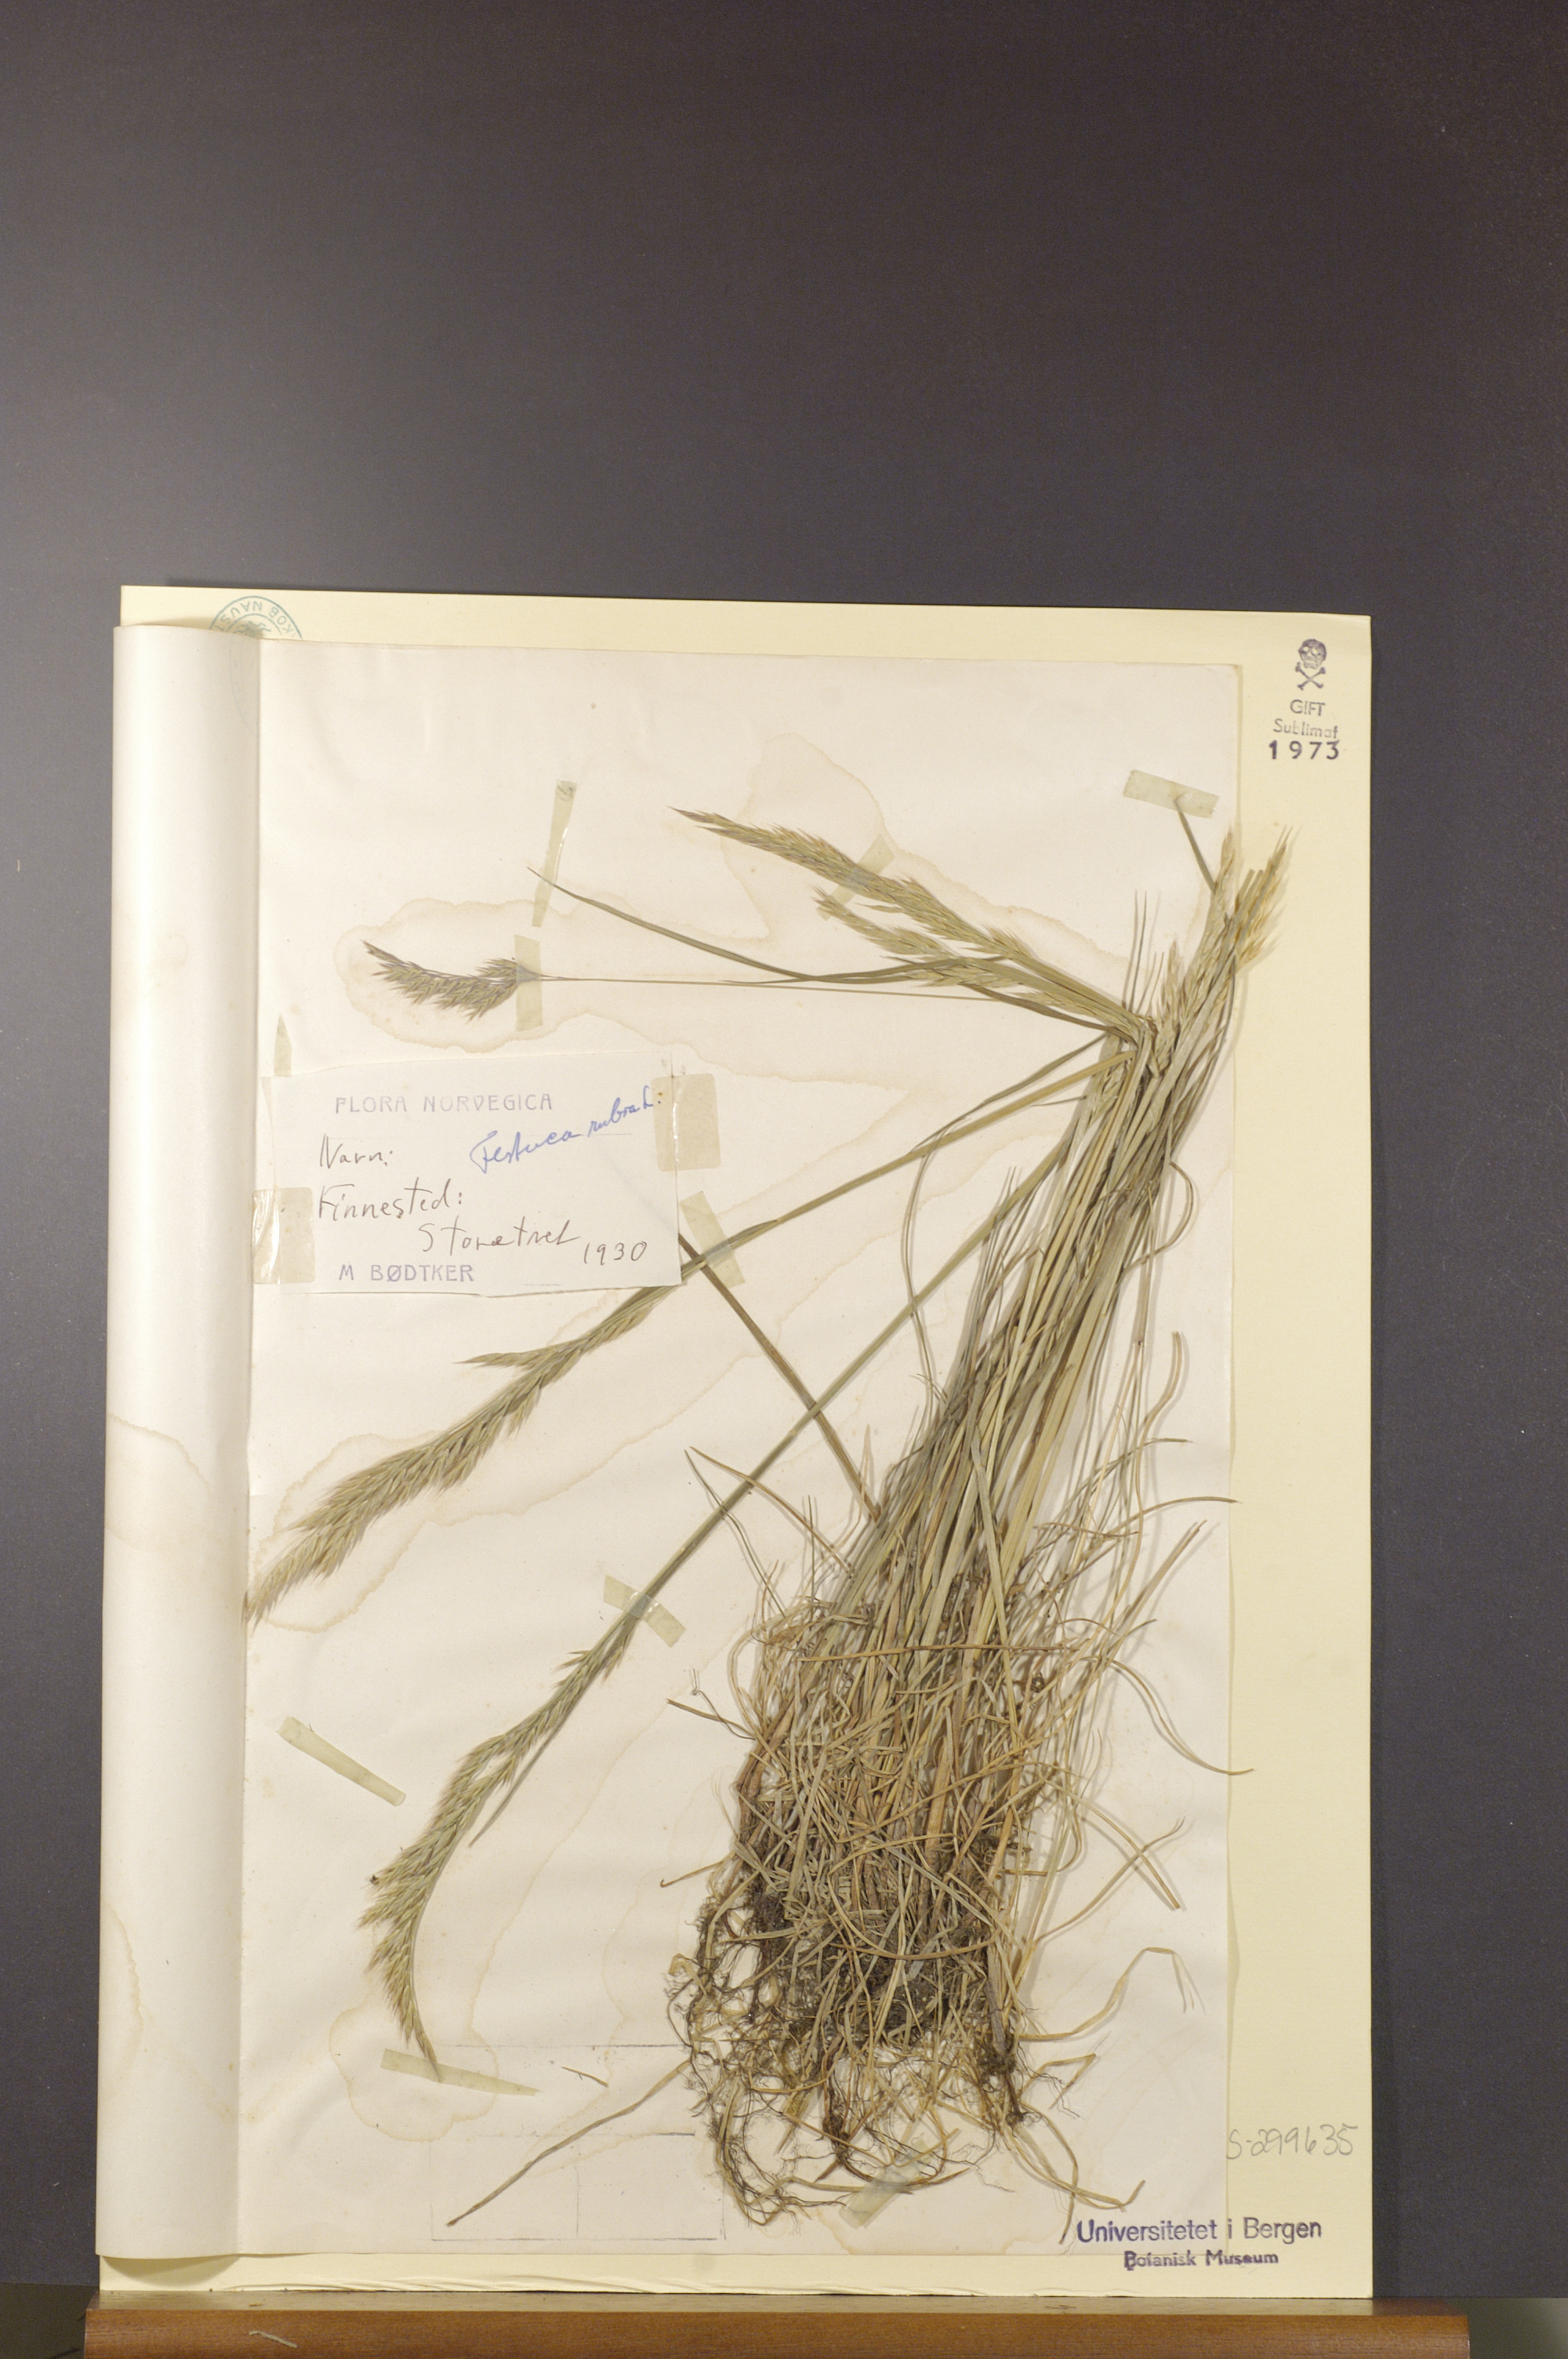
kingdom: Plantae
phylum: Tracheophyta
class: Liliopsida
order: Poales
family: Poaceae
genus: Festuca
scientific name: Festuca rubra
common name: Red fescue
